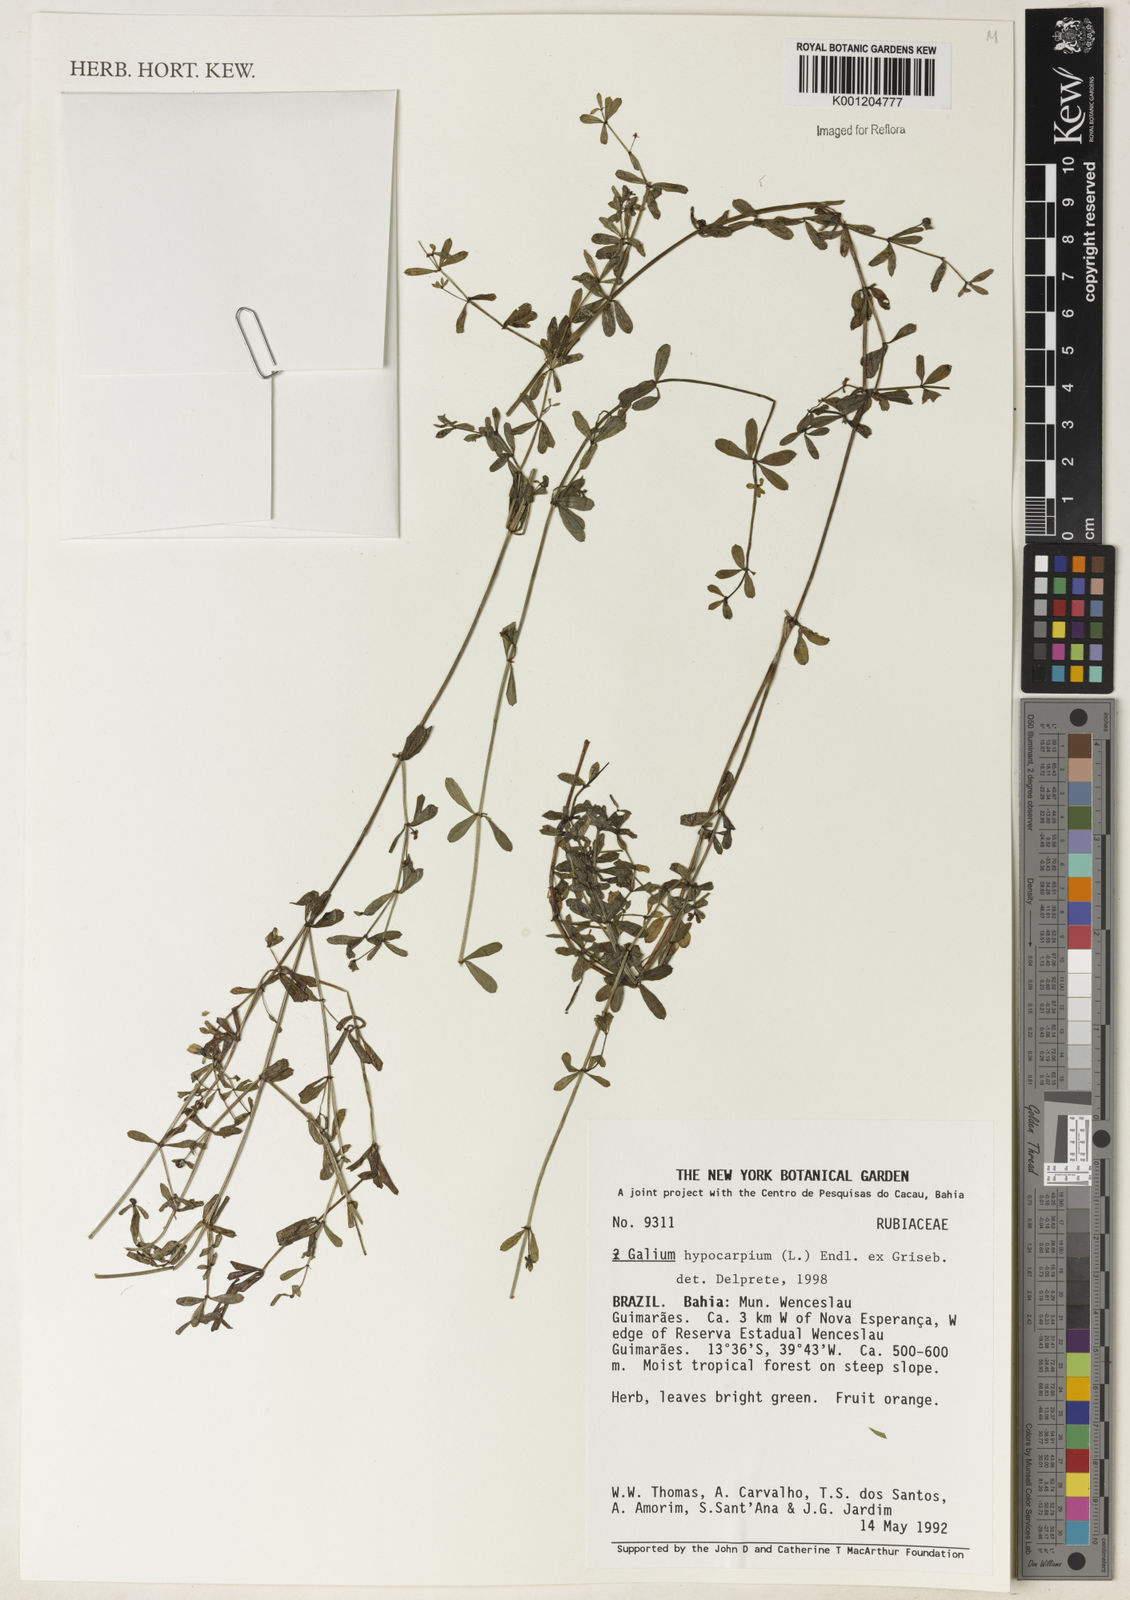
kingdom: Plantae
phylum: Tracheophyta
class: Magnoliopsida
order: Gentianales
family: Rubiaceae
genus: Galium
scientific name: Galium hypocarpium
